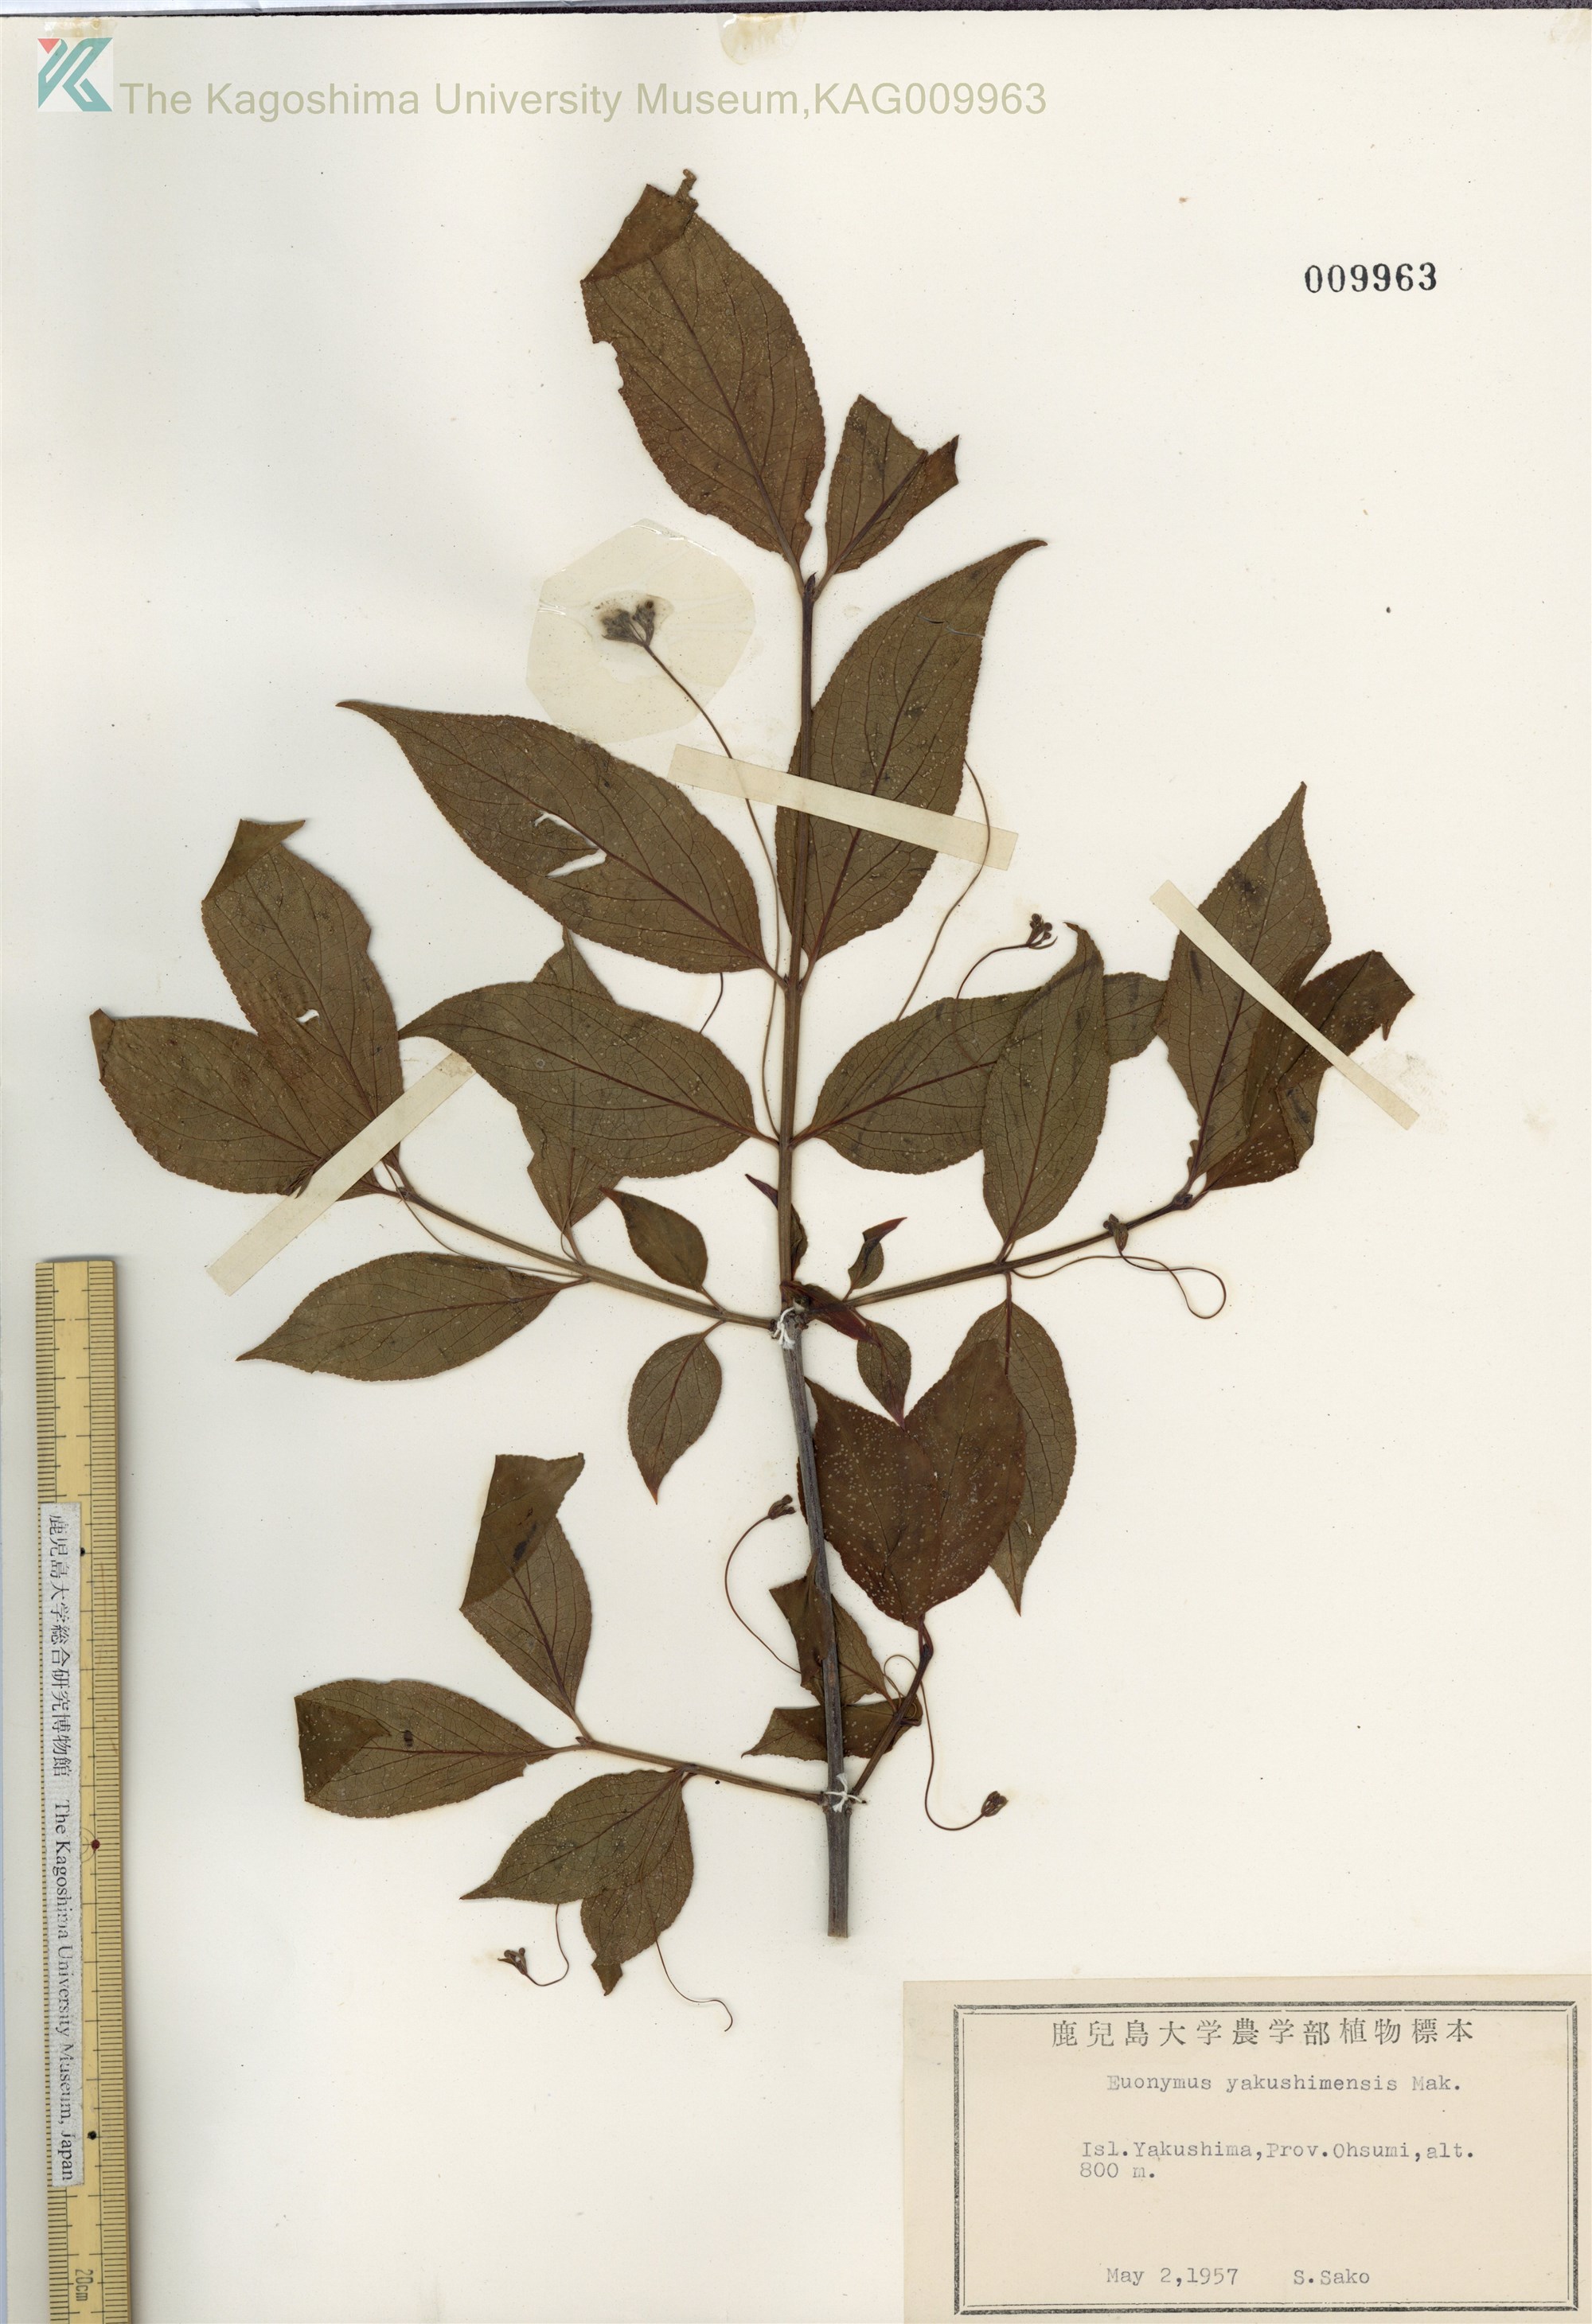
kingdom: Plantae
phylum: Tracheophyta
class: Magnoliopsida
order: Celastrales
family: Celastraceae
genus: Euonymus
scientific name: Euonymus yakushimensis
